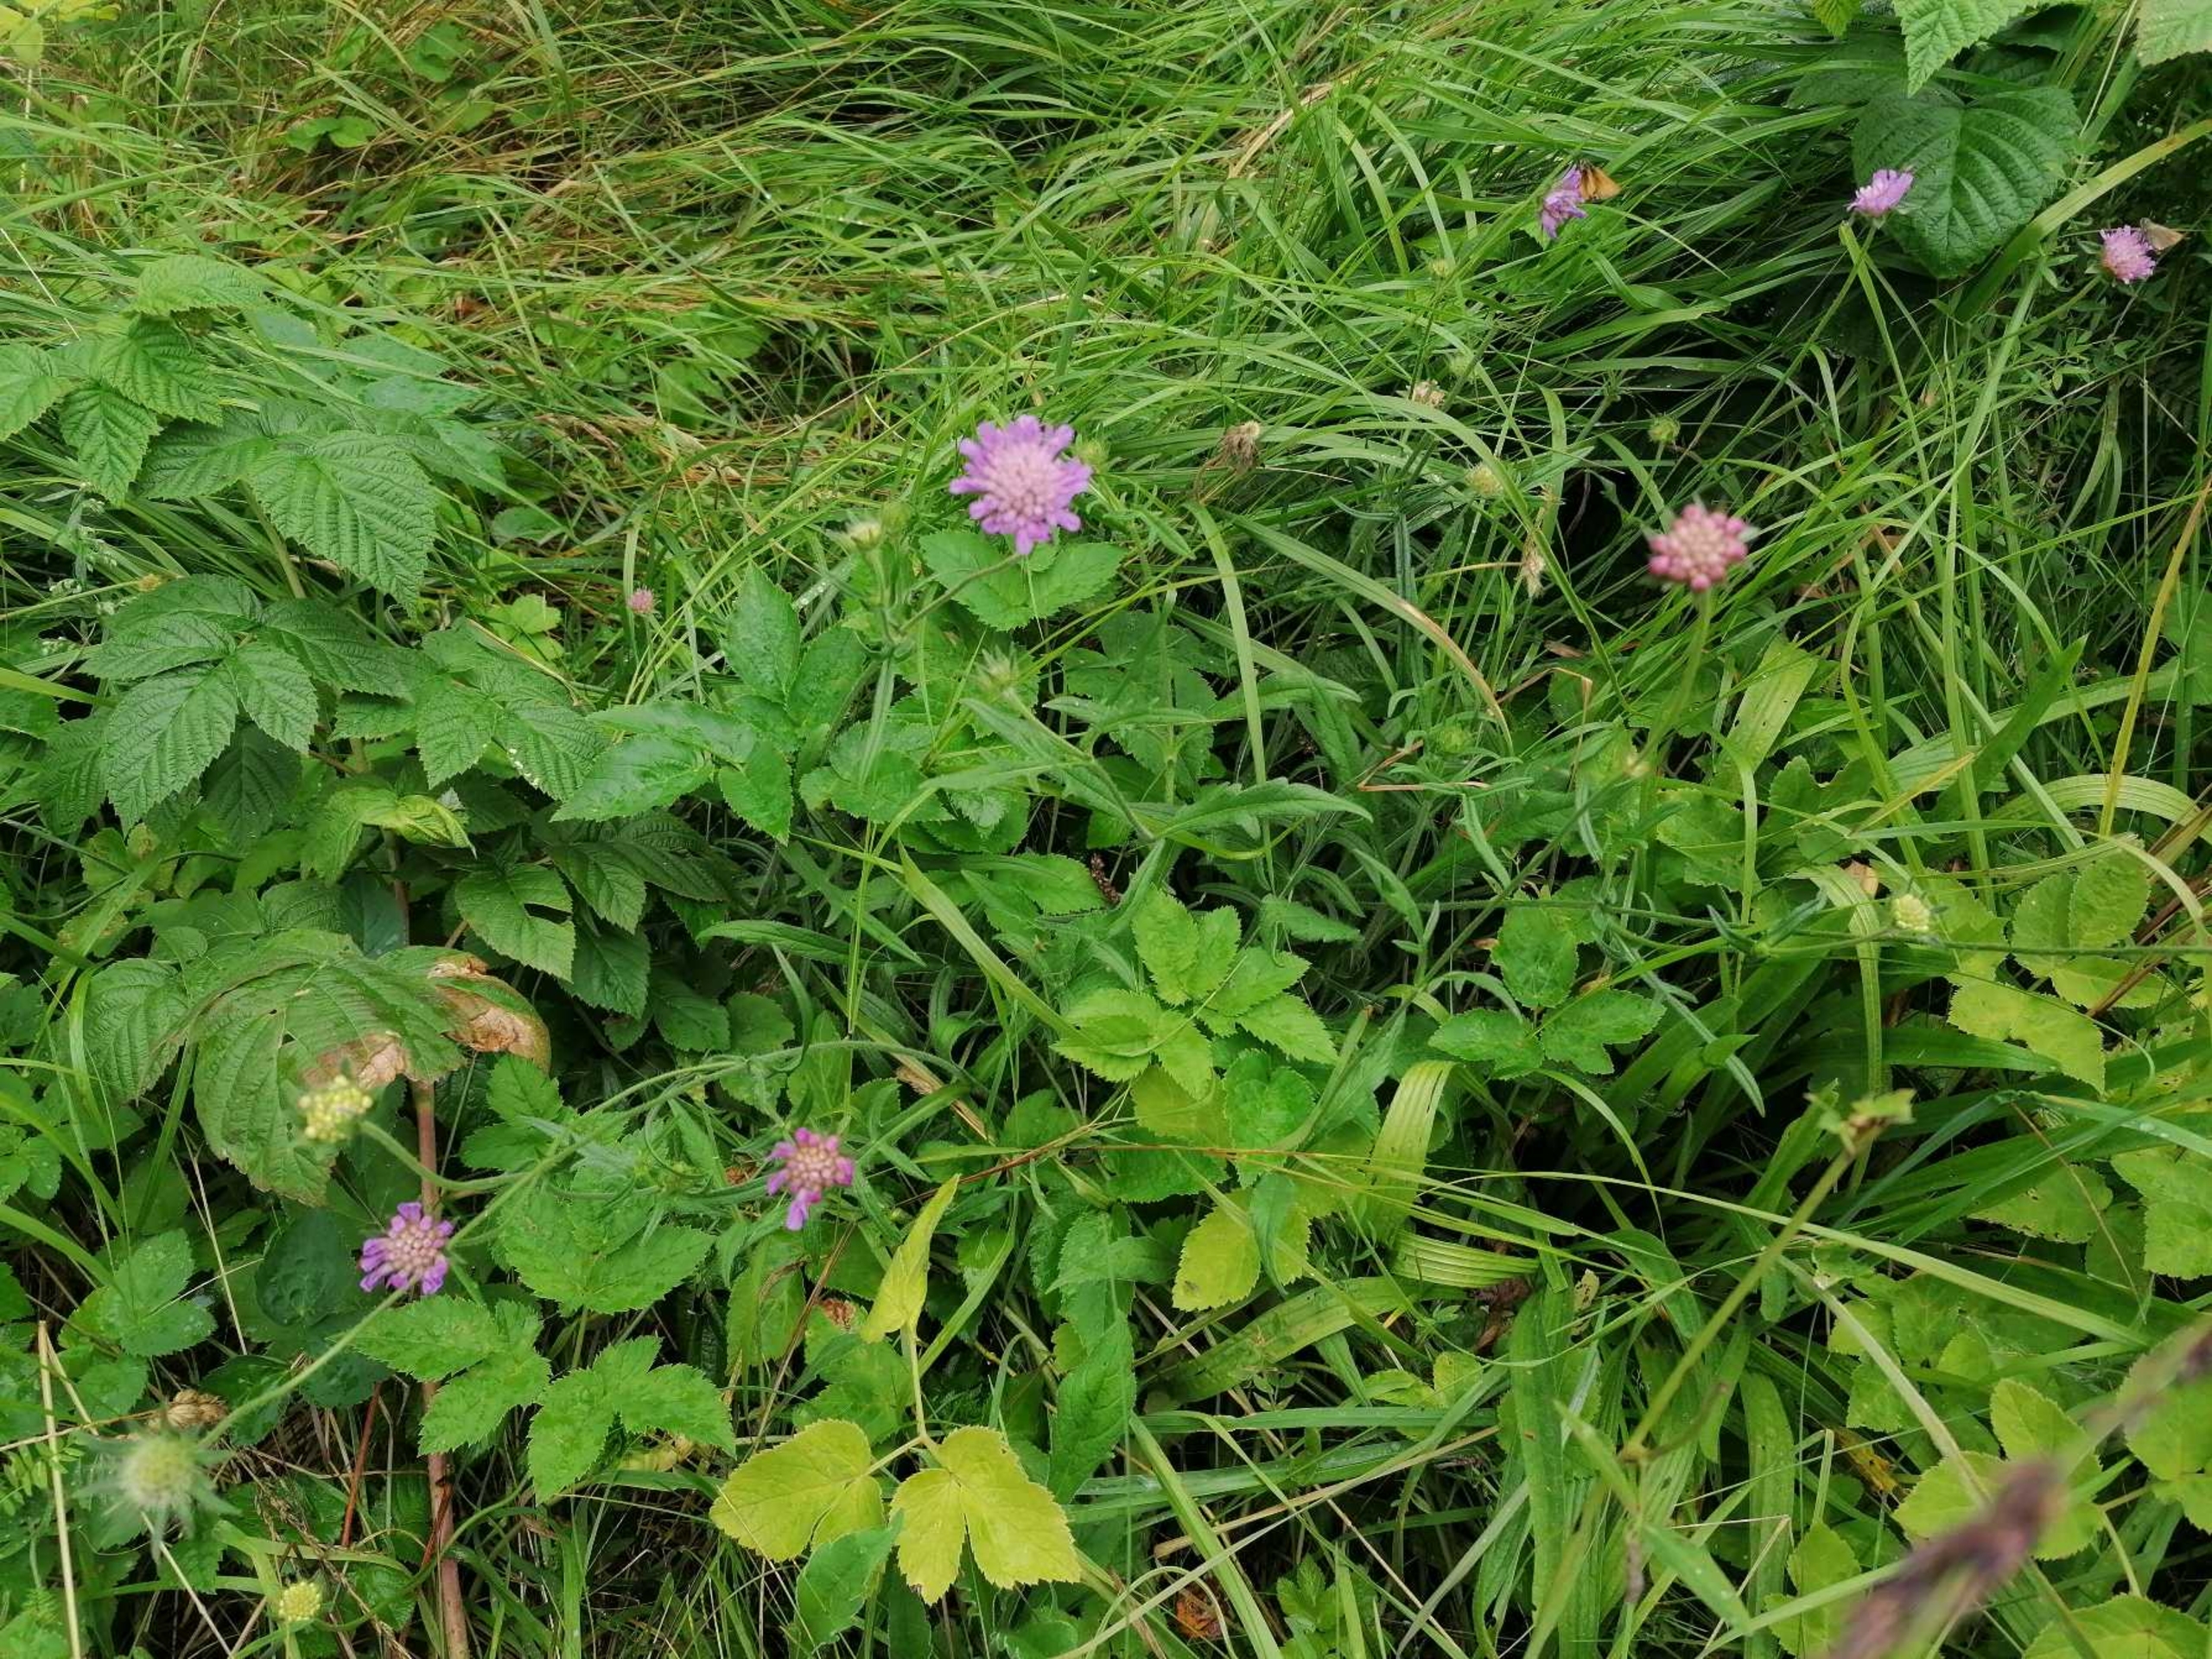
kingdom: Plantae
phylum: Tracheophyta
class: Magnoliopsida
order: Dipsacales
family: Caprifoliaceae
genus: Knautia
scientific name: Knautia arvensis
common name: Blåhat
